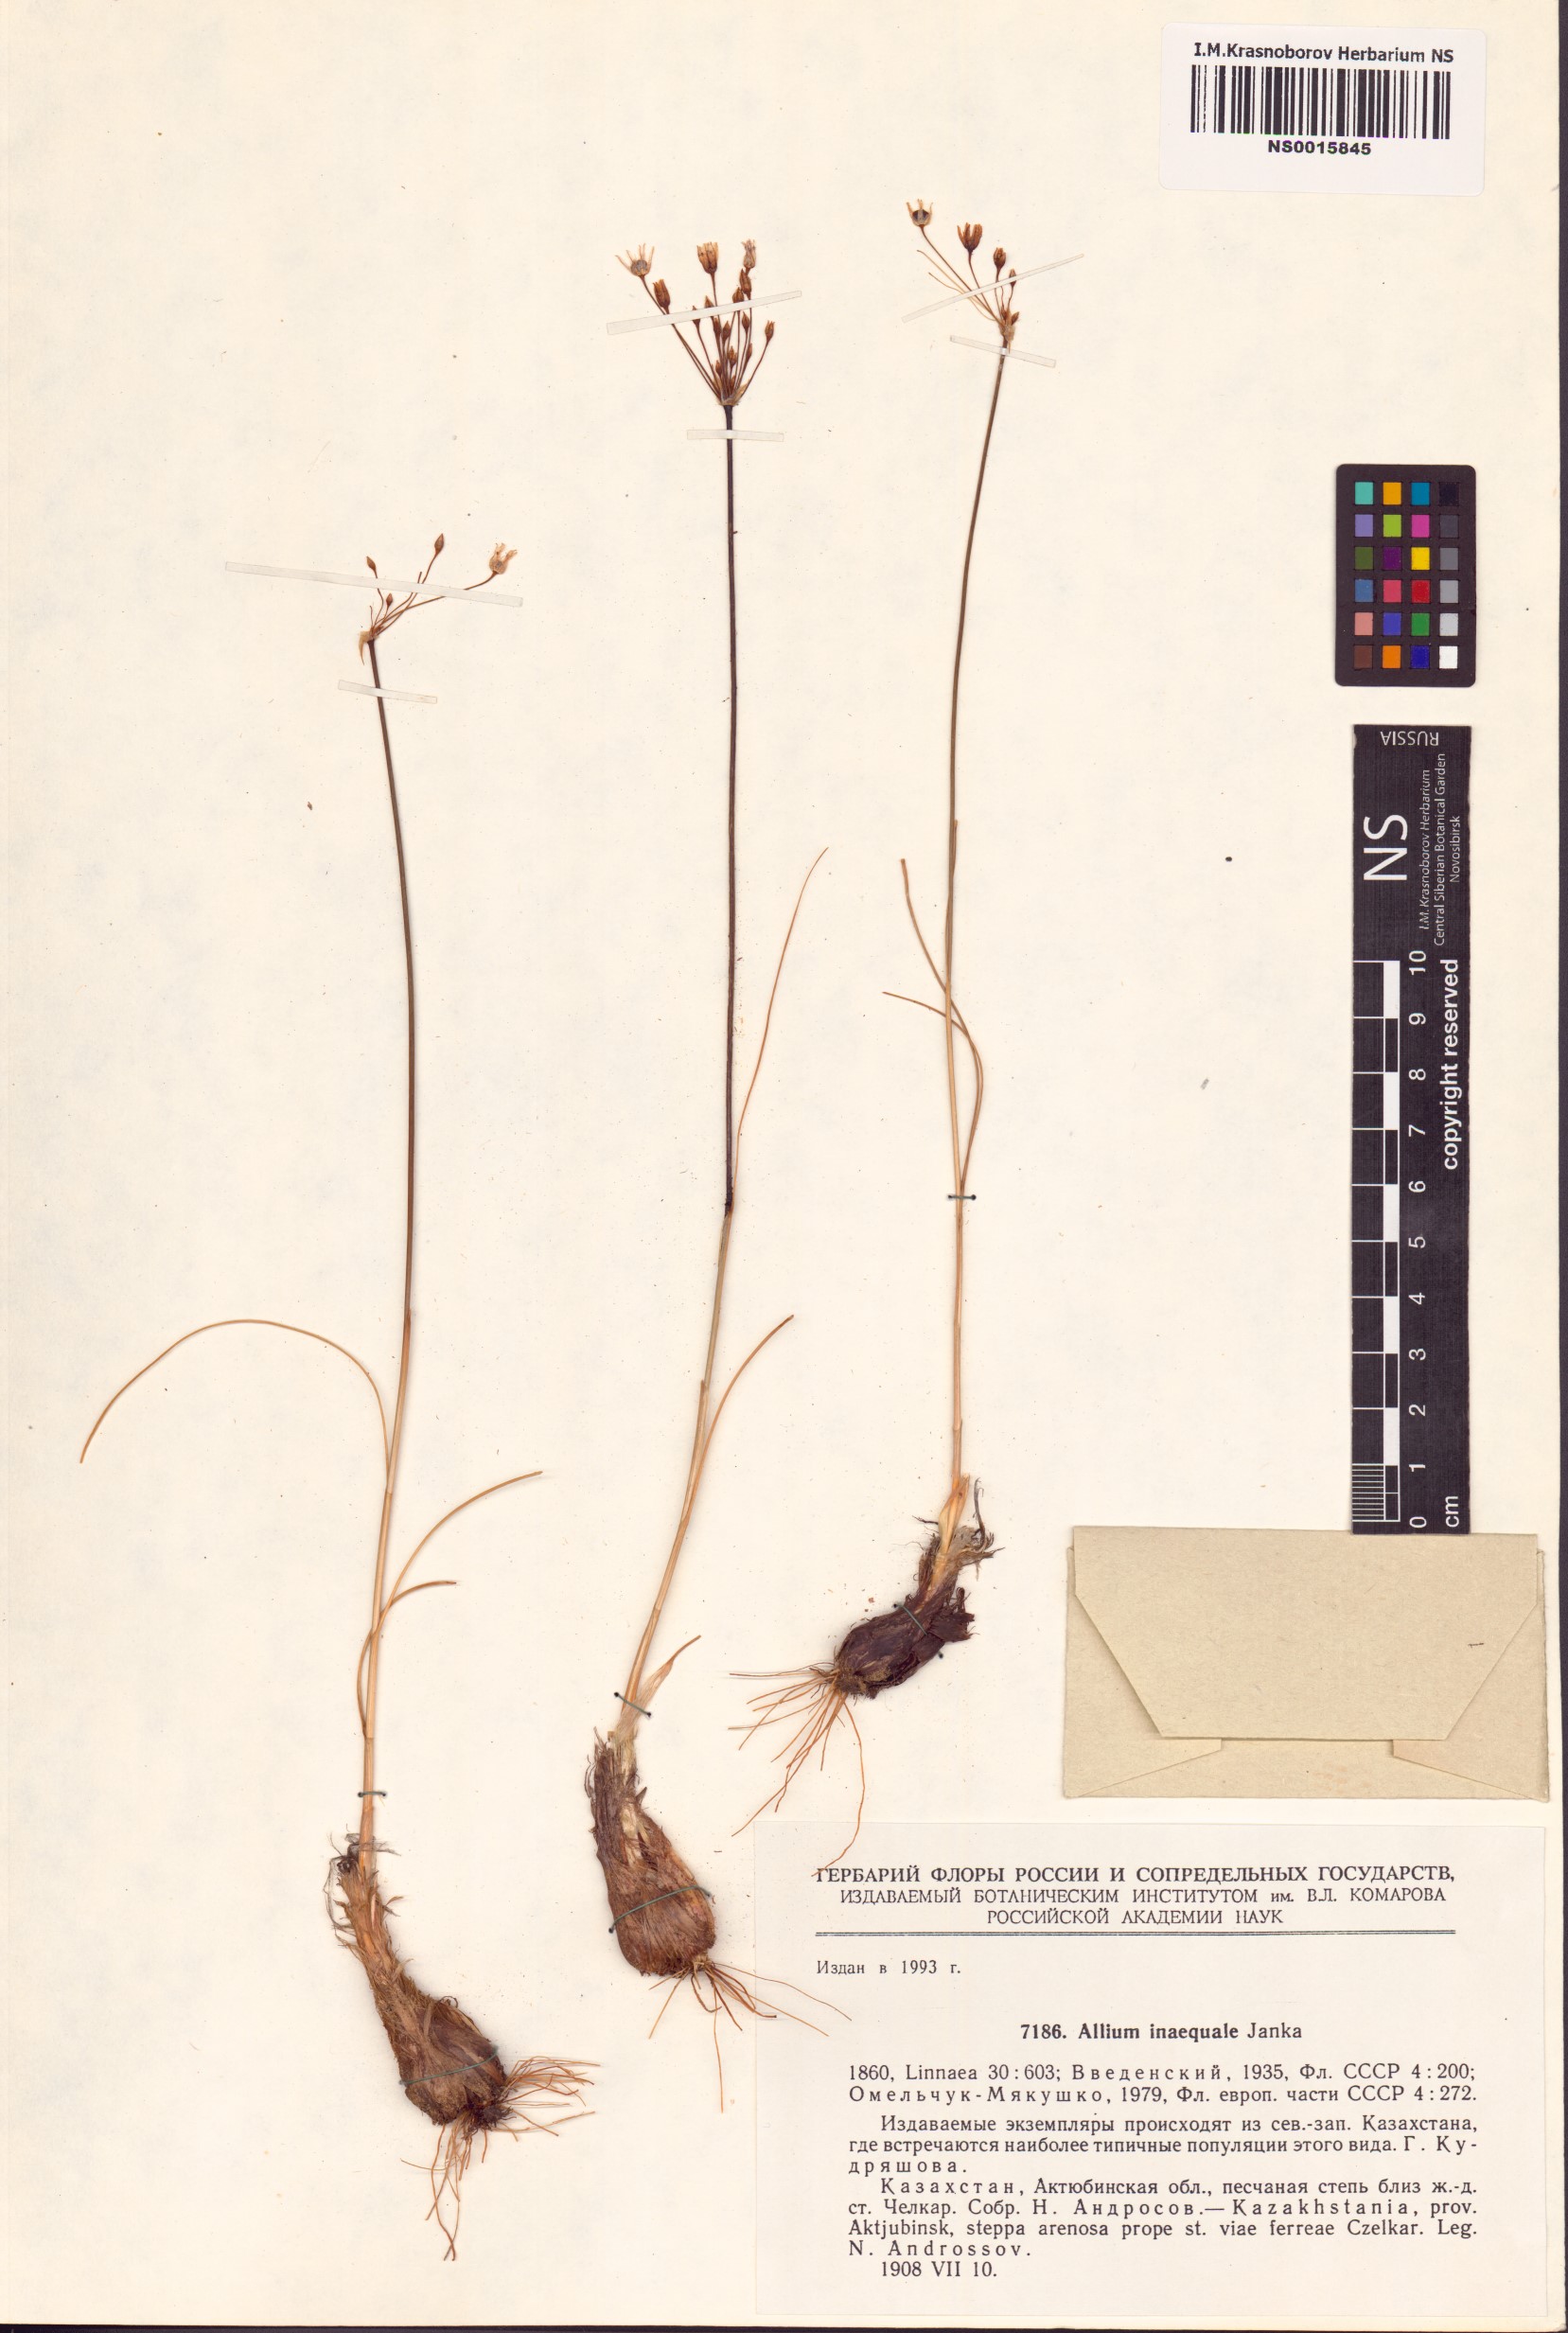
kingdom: Plantae
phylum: Tracheophyta
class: Liliopsida
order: Asparagales
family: Amaryllidaceae
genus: Allium
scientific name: Allium inaequale
